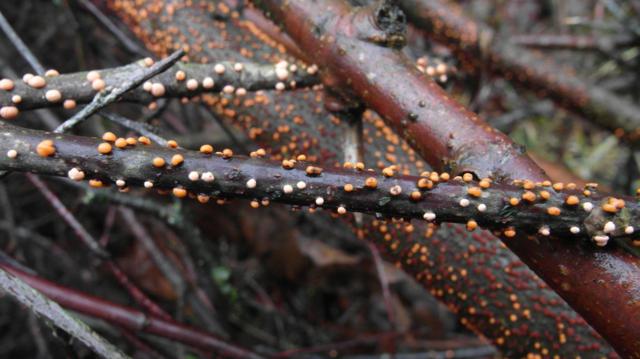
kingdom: Fungi
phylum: Ascomycota
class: Sordariomycetes
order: Hypocreales
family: Nectriaceae
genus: Nectria
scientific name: Nectria cinnabarina
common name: almindelig cinnobersvamp
